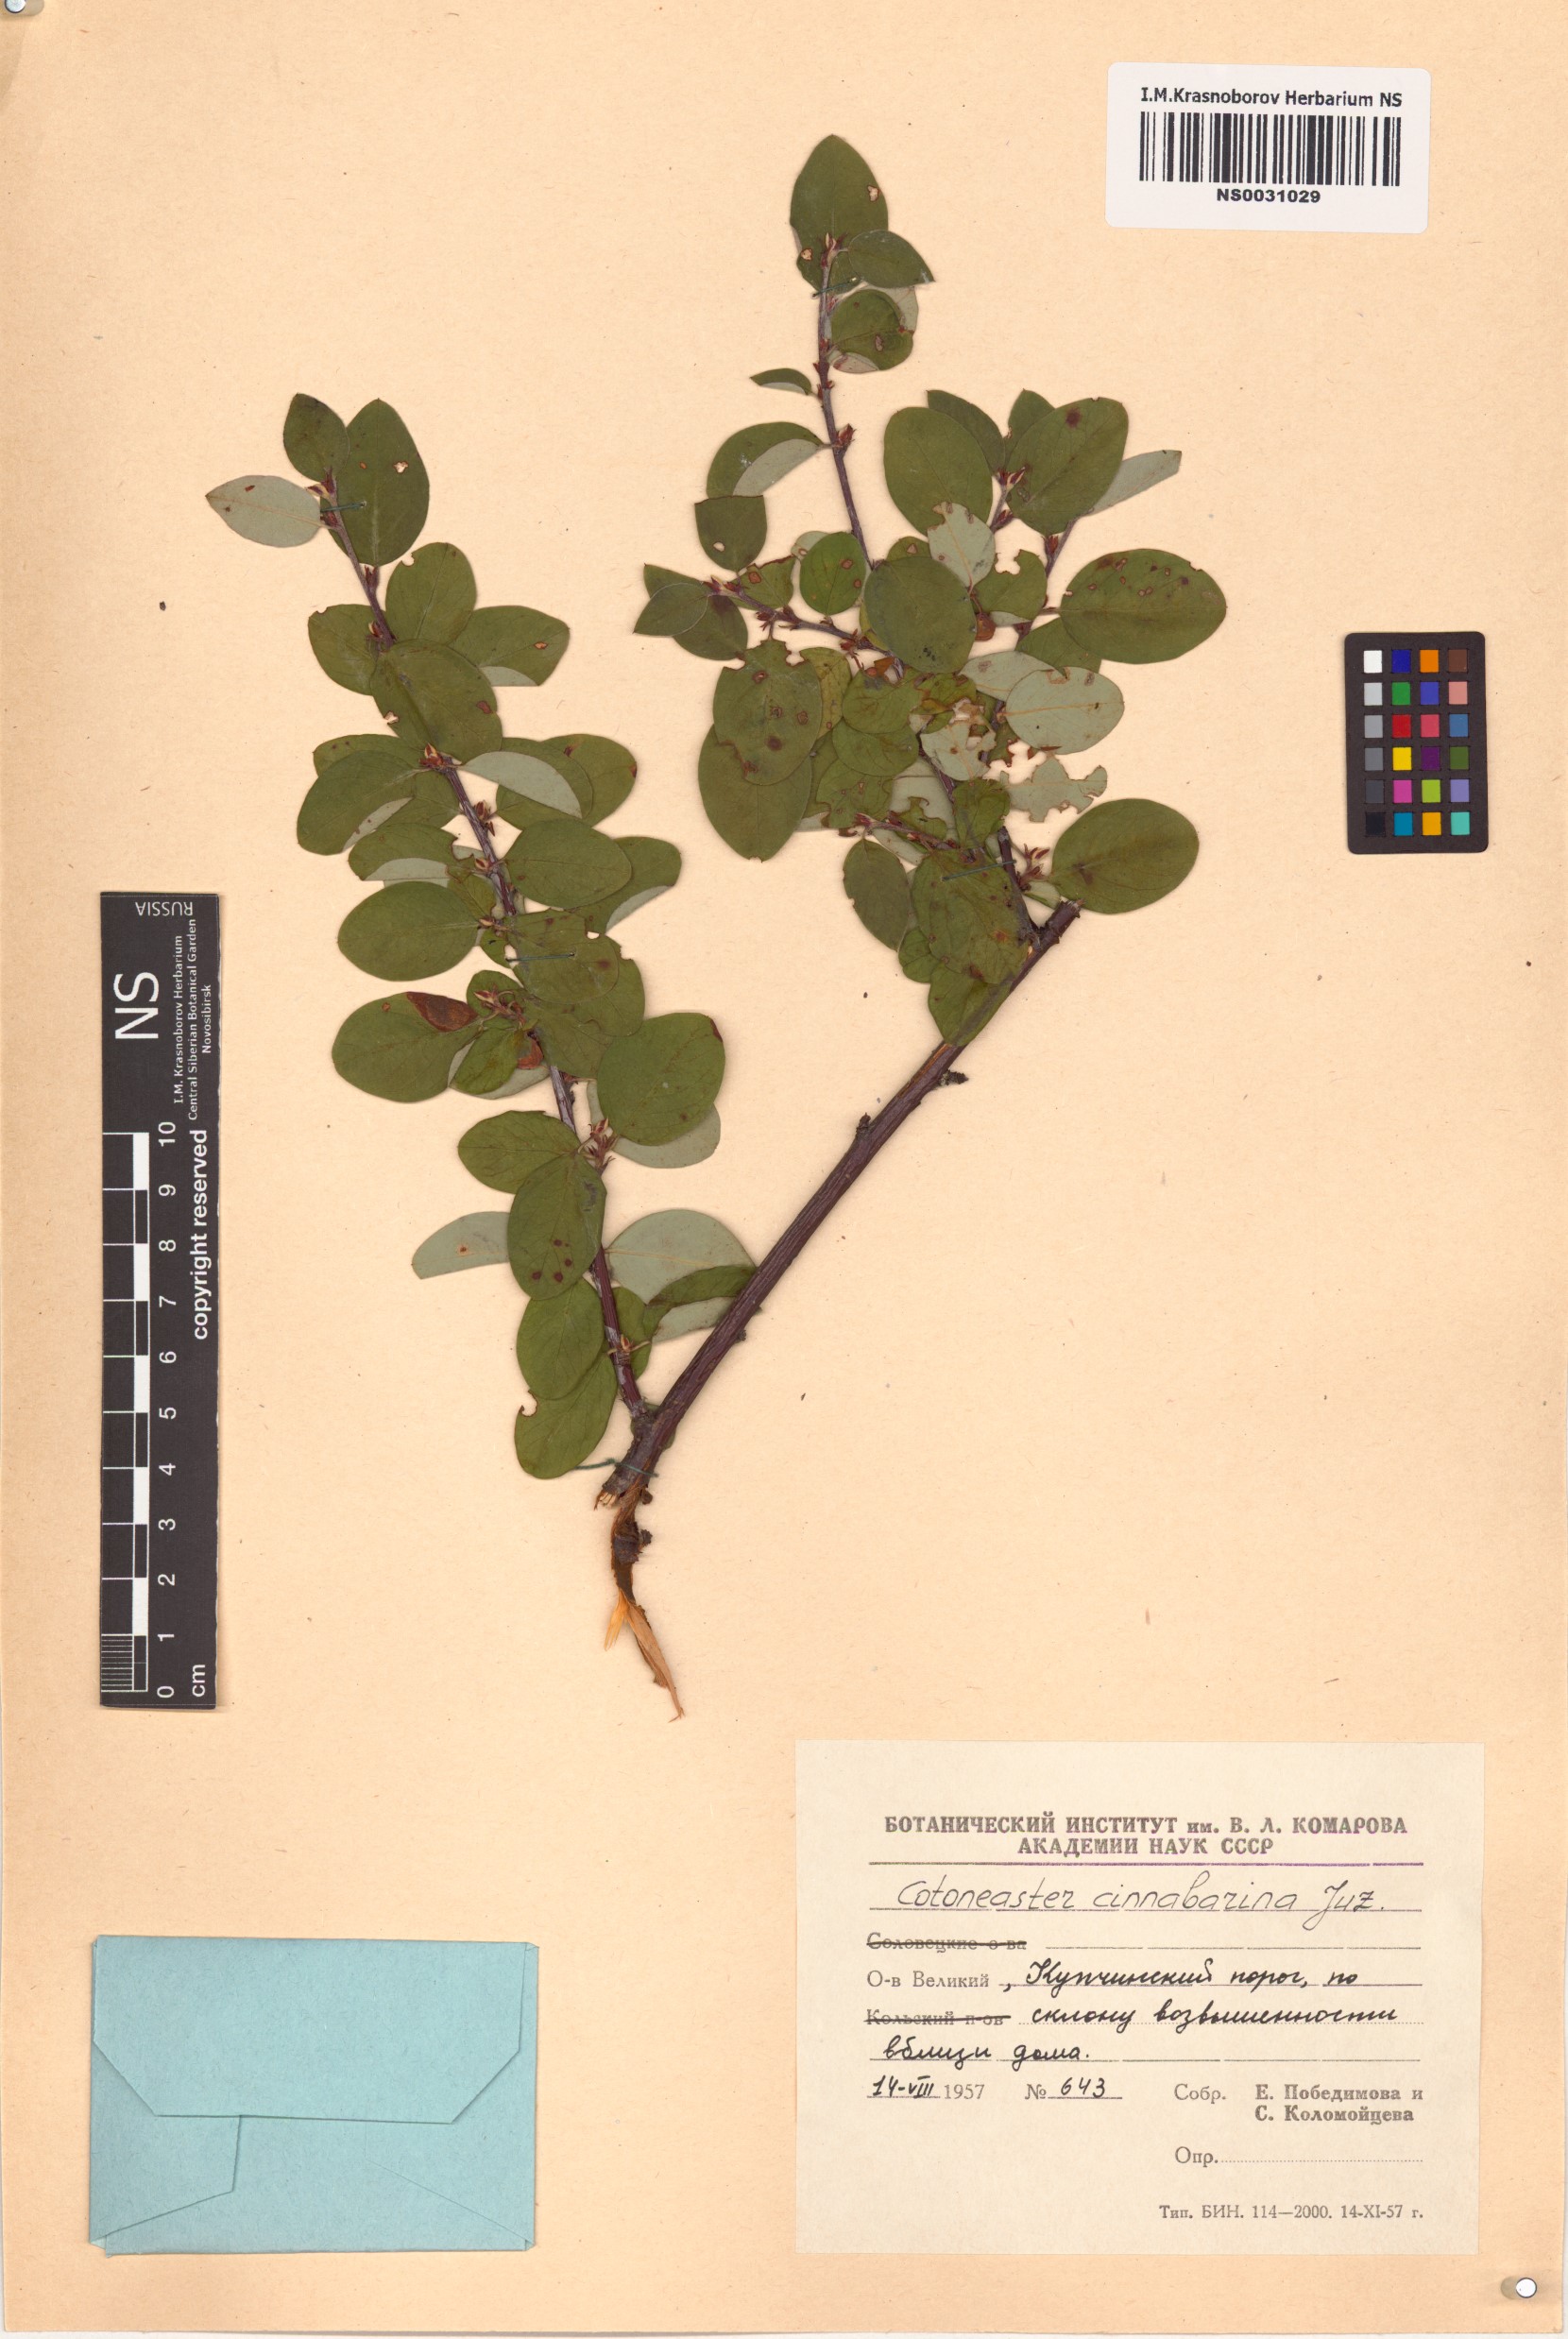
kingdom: Plantae
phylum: Tracheophyta
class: Magnoliopsida
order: Rosales
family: Rosaceae
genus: Cotoneaster
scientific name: Cotoneaster integerrimus
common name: Wild cotoneaster
